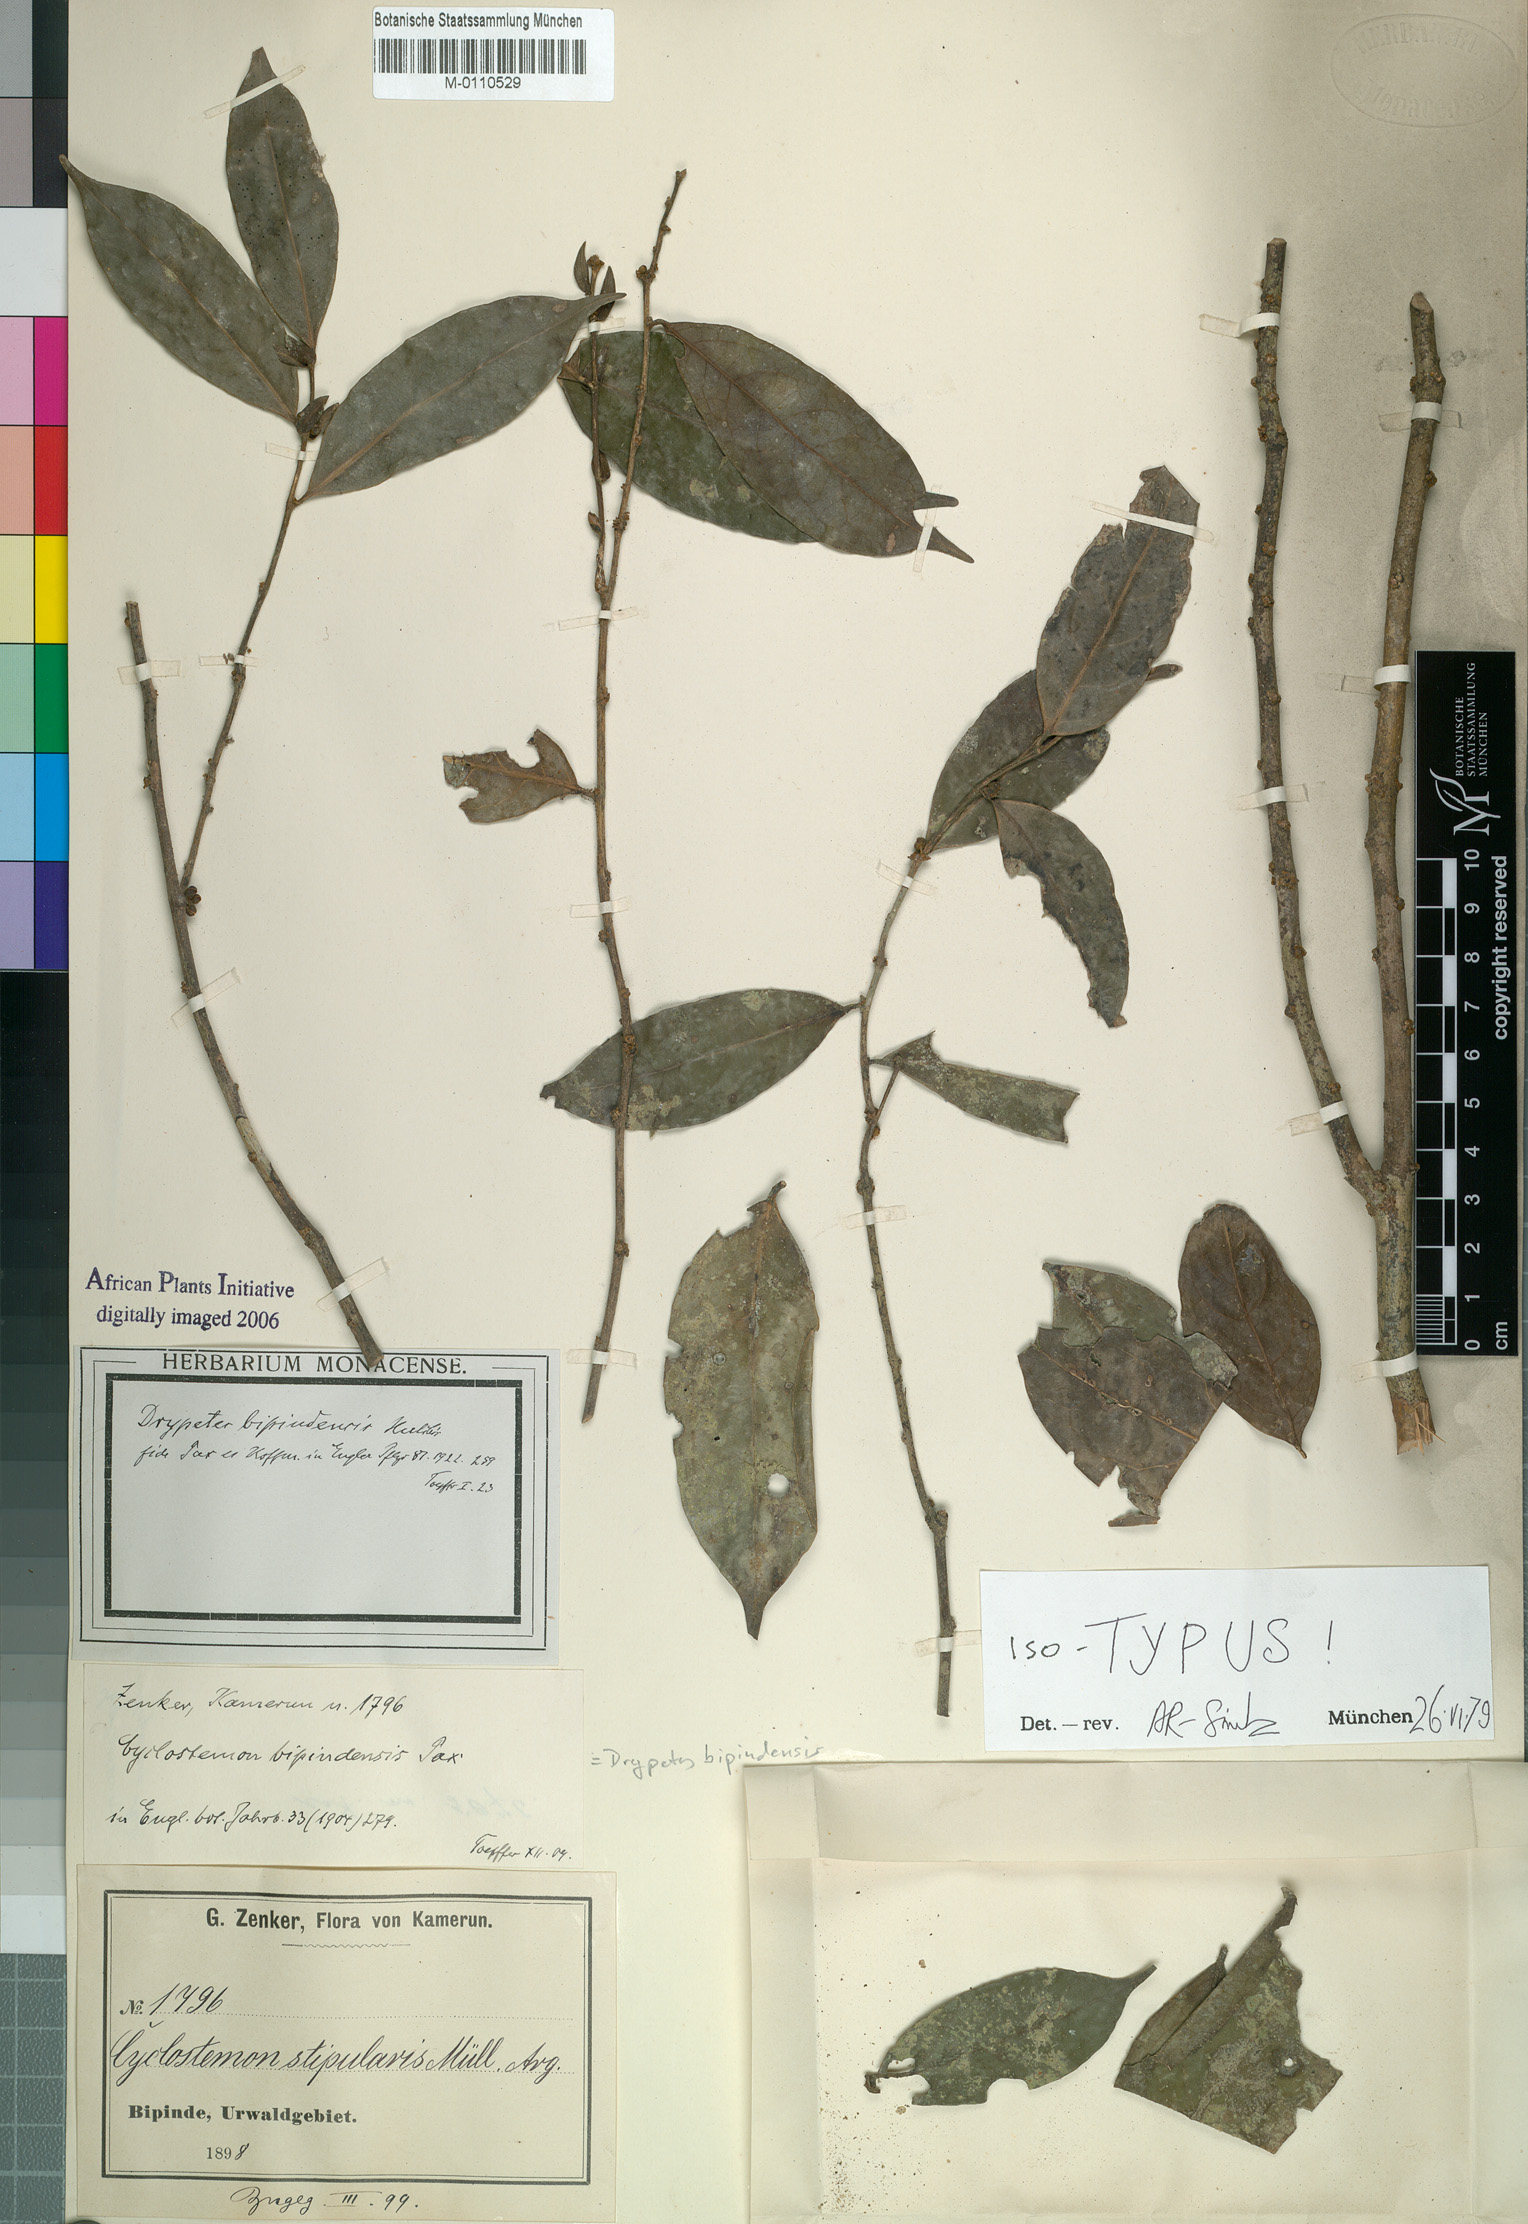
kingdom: Plantae
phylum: Tracheophyta
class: Magnoliopsida
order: Malpighiales
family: Putranjivaceae
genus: Drypetes
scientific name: Drypetes bipindensis
